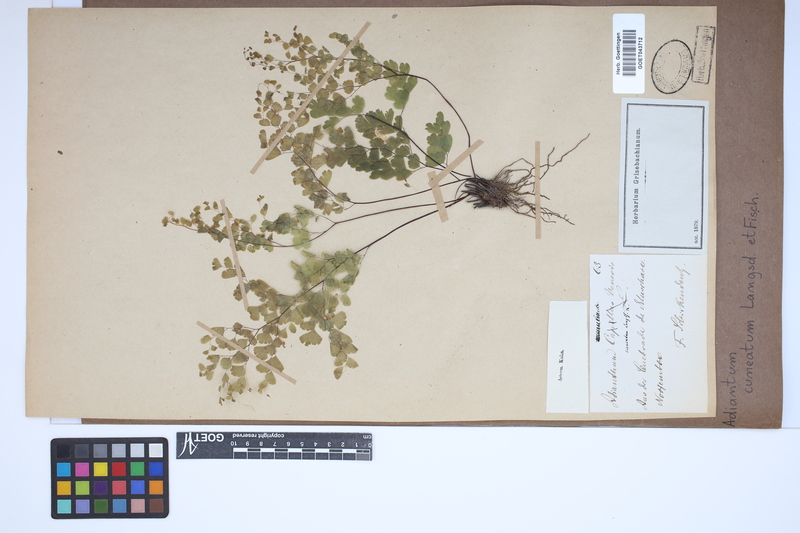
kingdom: Plantae
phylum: Tracheophyta
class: Polypodiopsida
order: Polypodiales
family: Pteridaceae
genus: Adiantum
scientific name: Adiantum raddianum
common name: Delta maidenhair fern
